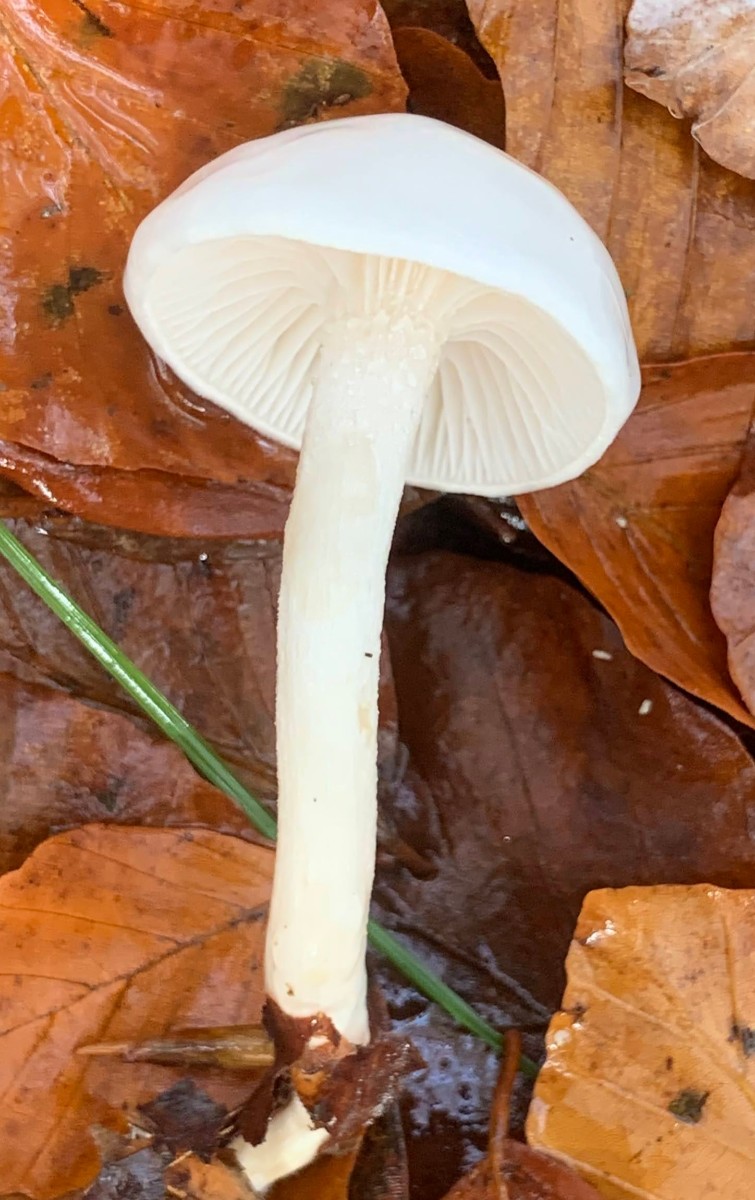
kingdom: Fungi
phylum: Basidiomycota
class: Agaricomycetes
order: Agaricales
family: Hygrophoraceae
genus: Hygrophorus
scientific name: Hygrophorus eburneus
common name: elfenbens-sneglehat
